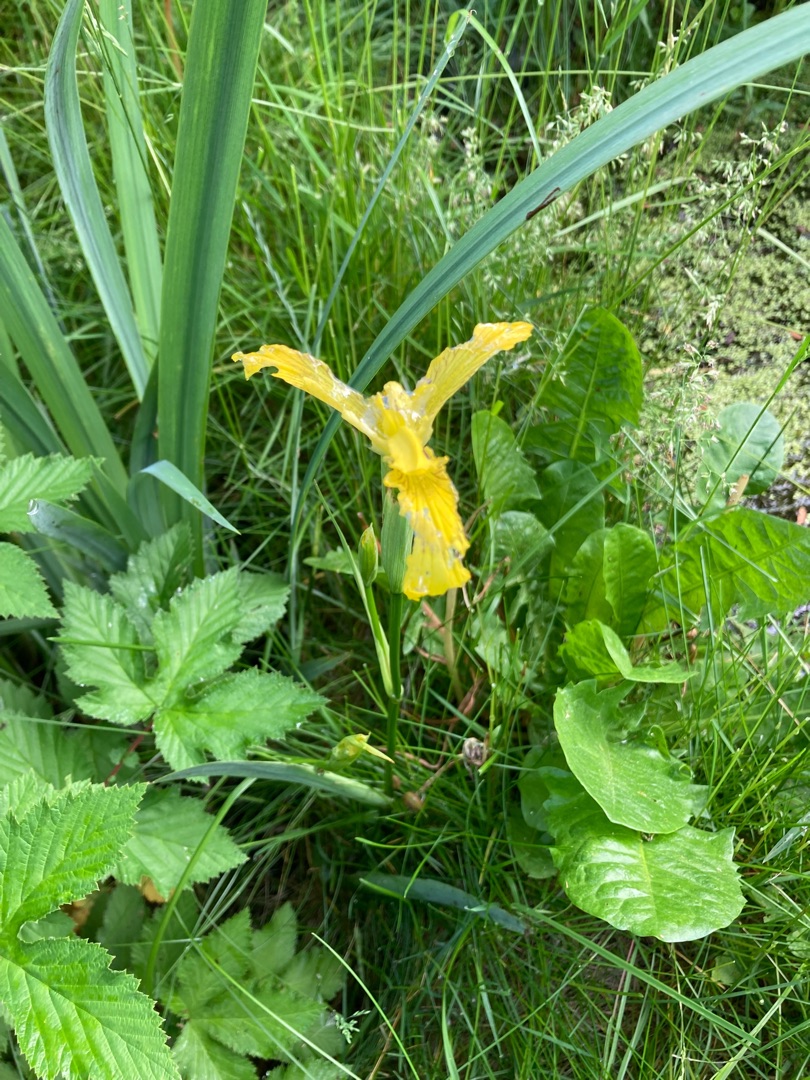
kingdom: Plantae
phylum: Tracheophyta
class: Liliopsida
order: Asparagales
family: Iridaceae
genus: Iris
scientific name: Iris pseudacorus
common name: Gul iris
